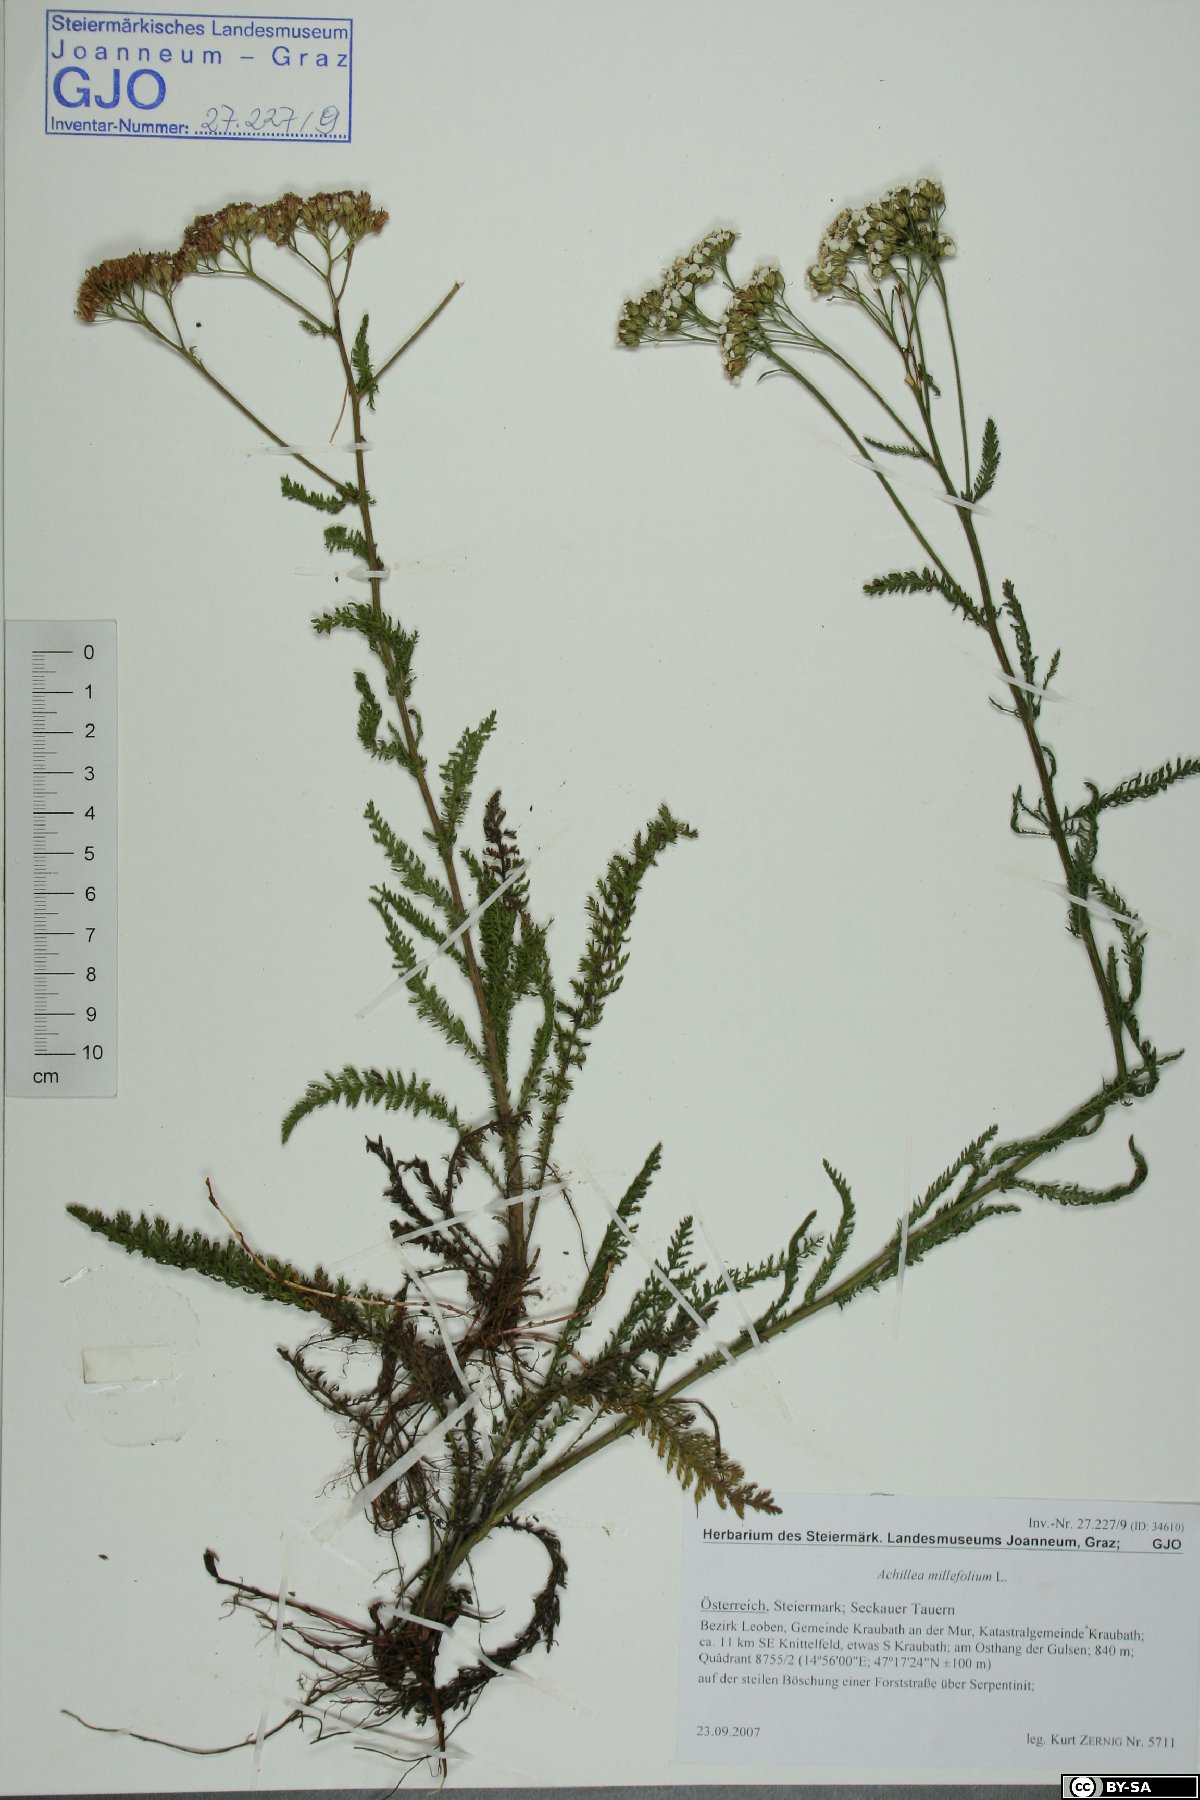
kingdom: Plantae
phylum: Tracheophyta
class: Magnoliopsida
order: Asterales
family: Asteraceae
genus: Achillea
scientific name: Achillea millefolium
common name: Yarrow
